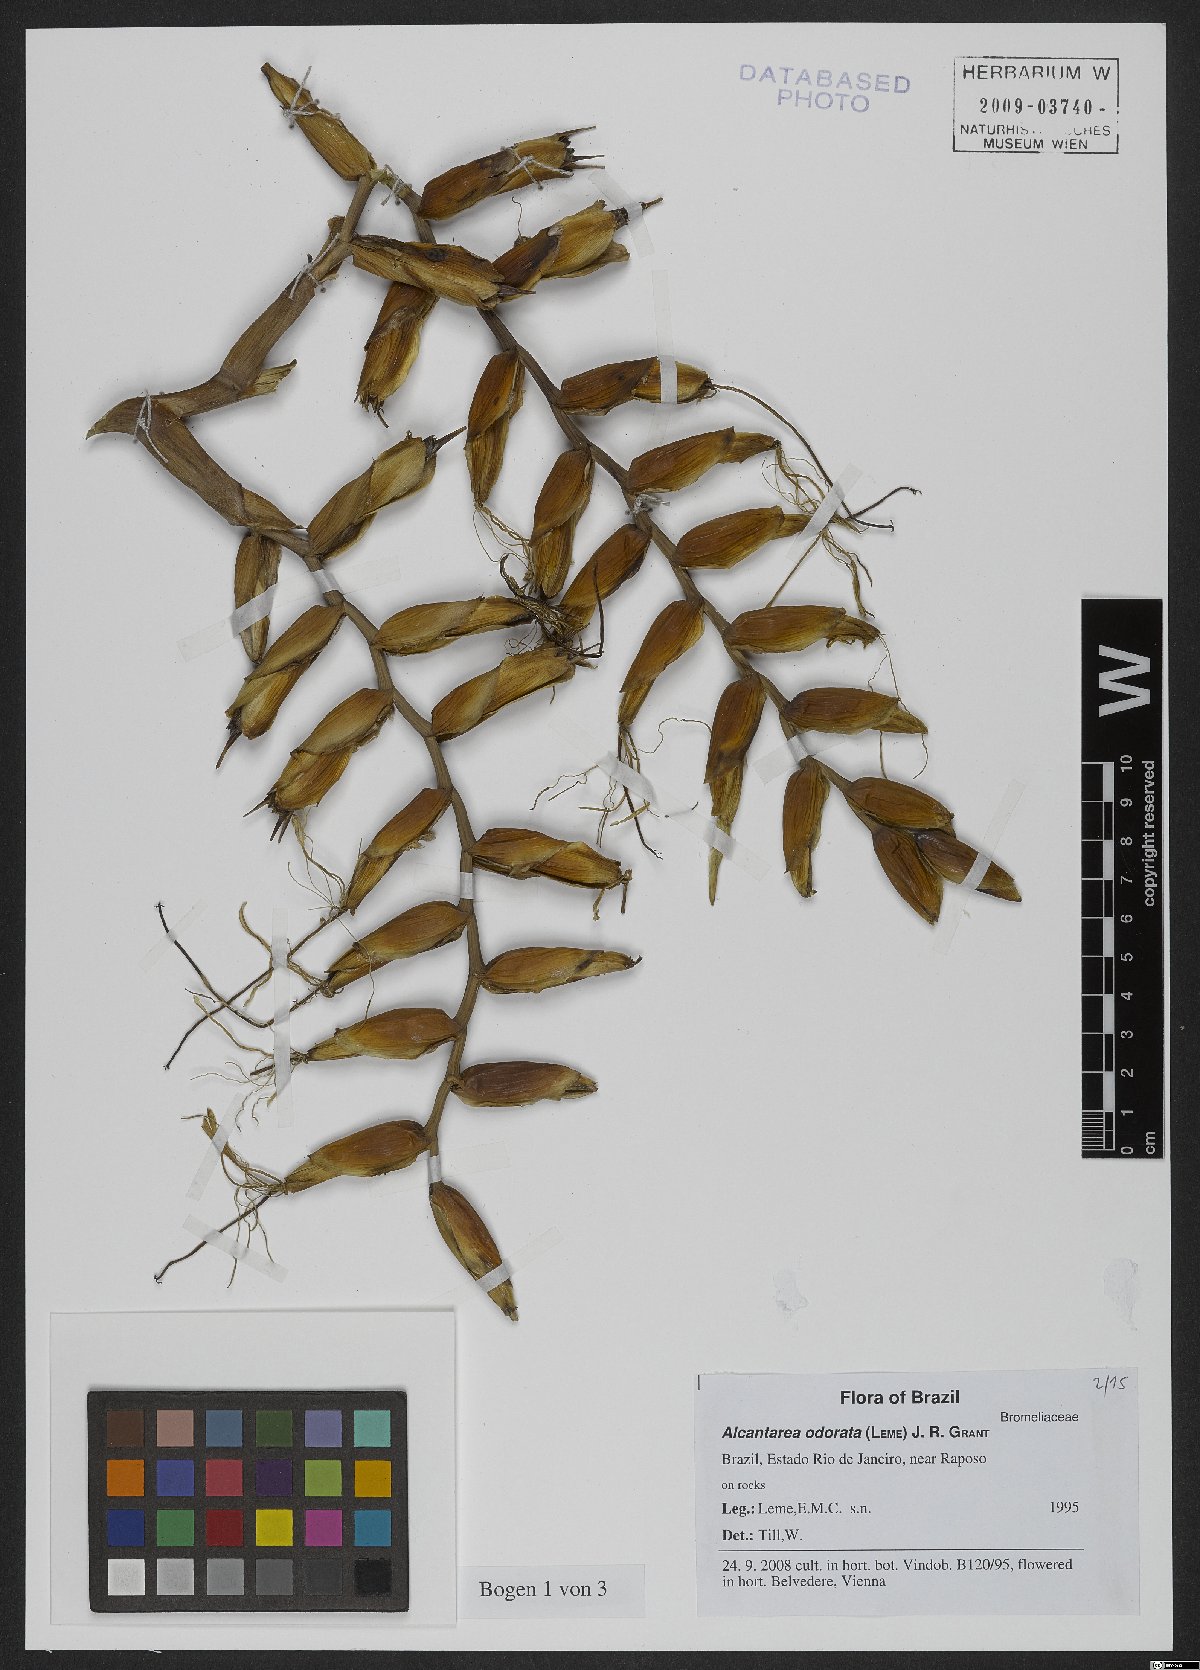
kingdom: Plantae
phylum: Tracheophyta
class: Liliopsida
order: Poales
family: Bromeliaceae
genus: Alcantarea
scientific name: Alcantarea odorata
